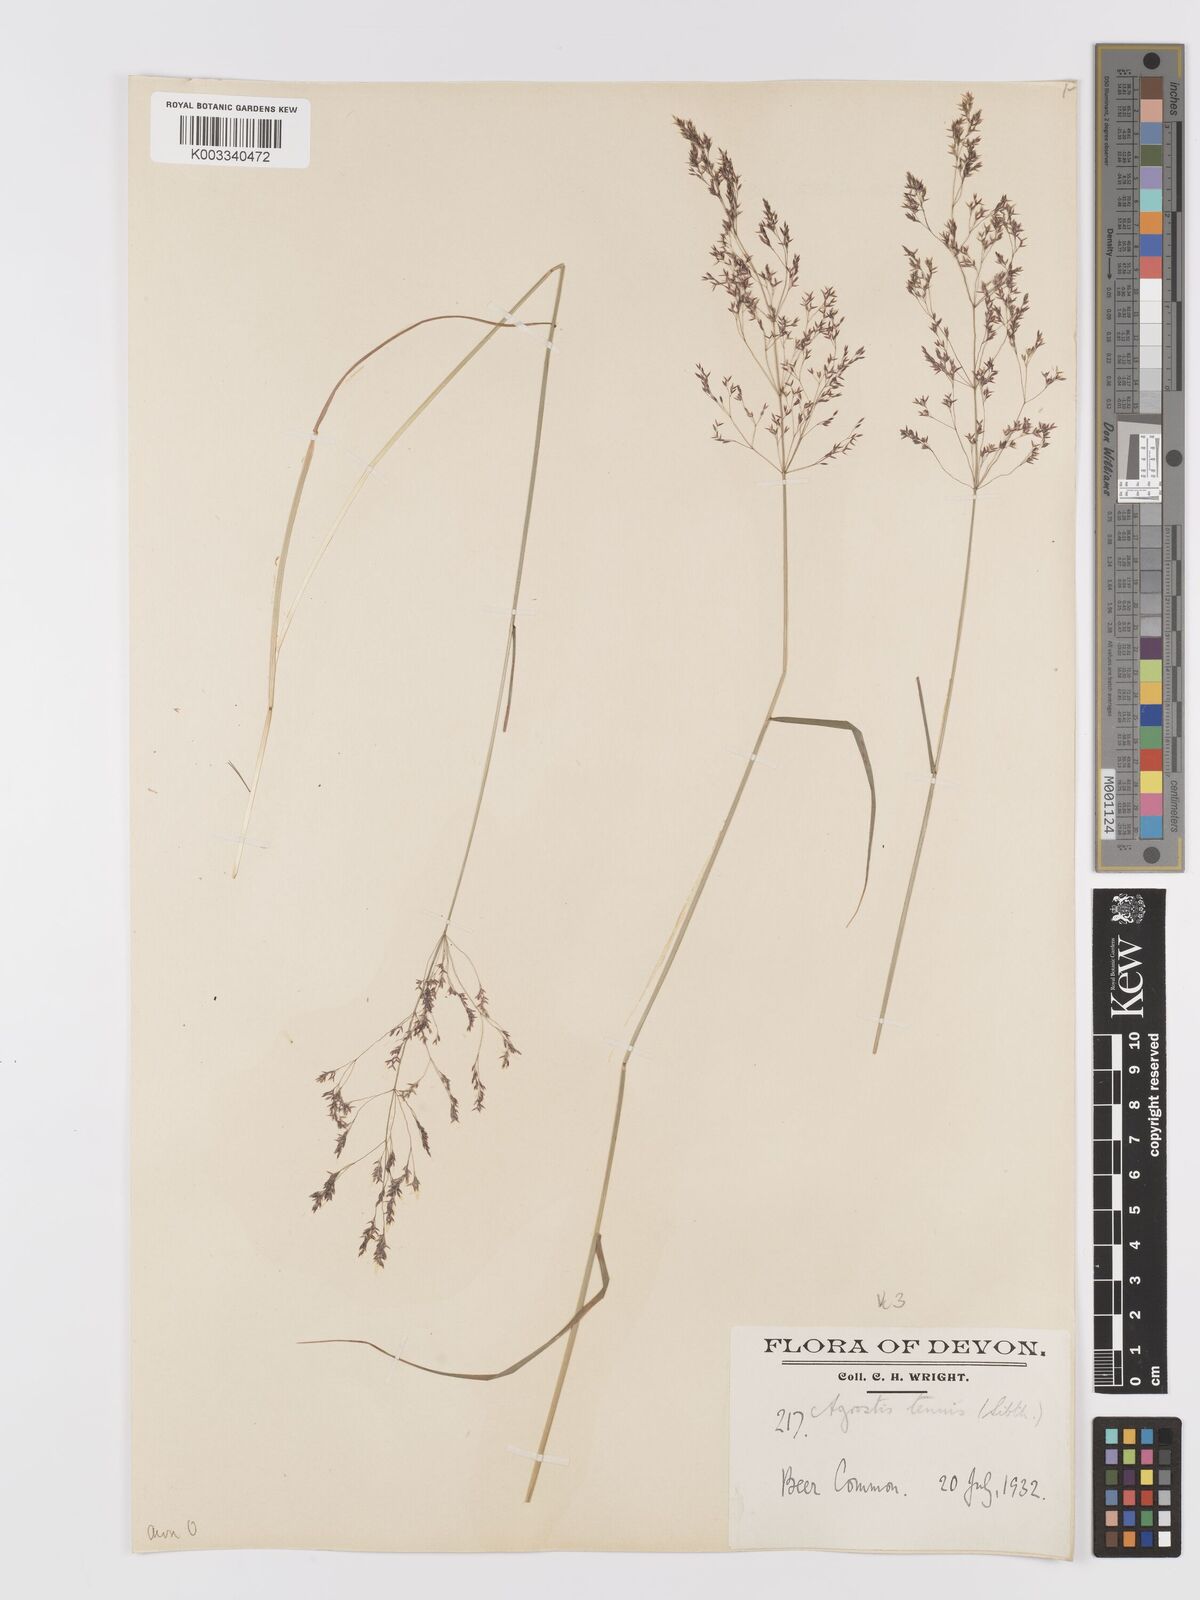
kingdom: Plantae
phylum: Tracheophyta
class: Liliopsida
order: Poales
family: Poaceae
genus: Agrostis
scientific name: Agrostis capillaris
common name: Colonial bentgrass
